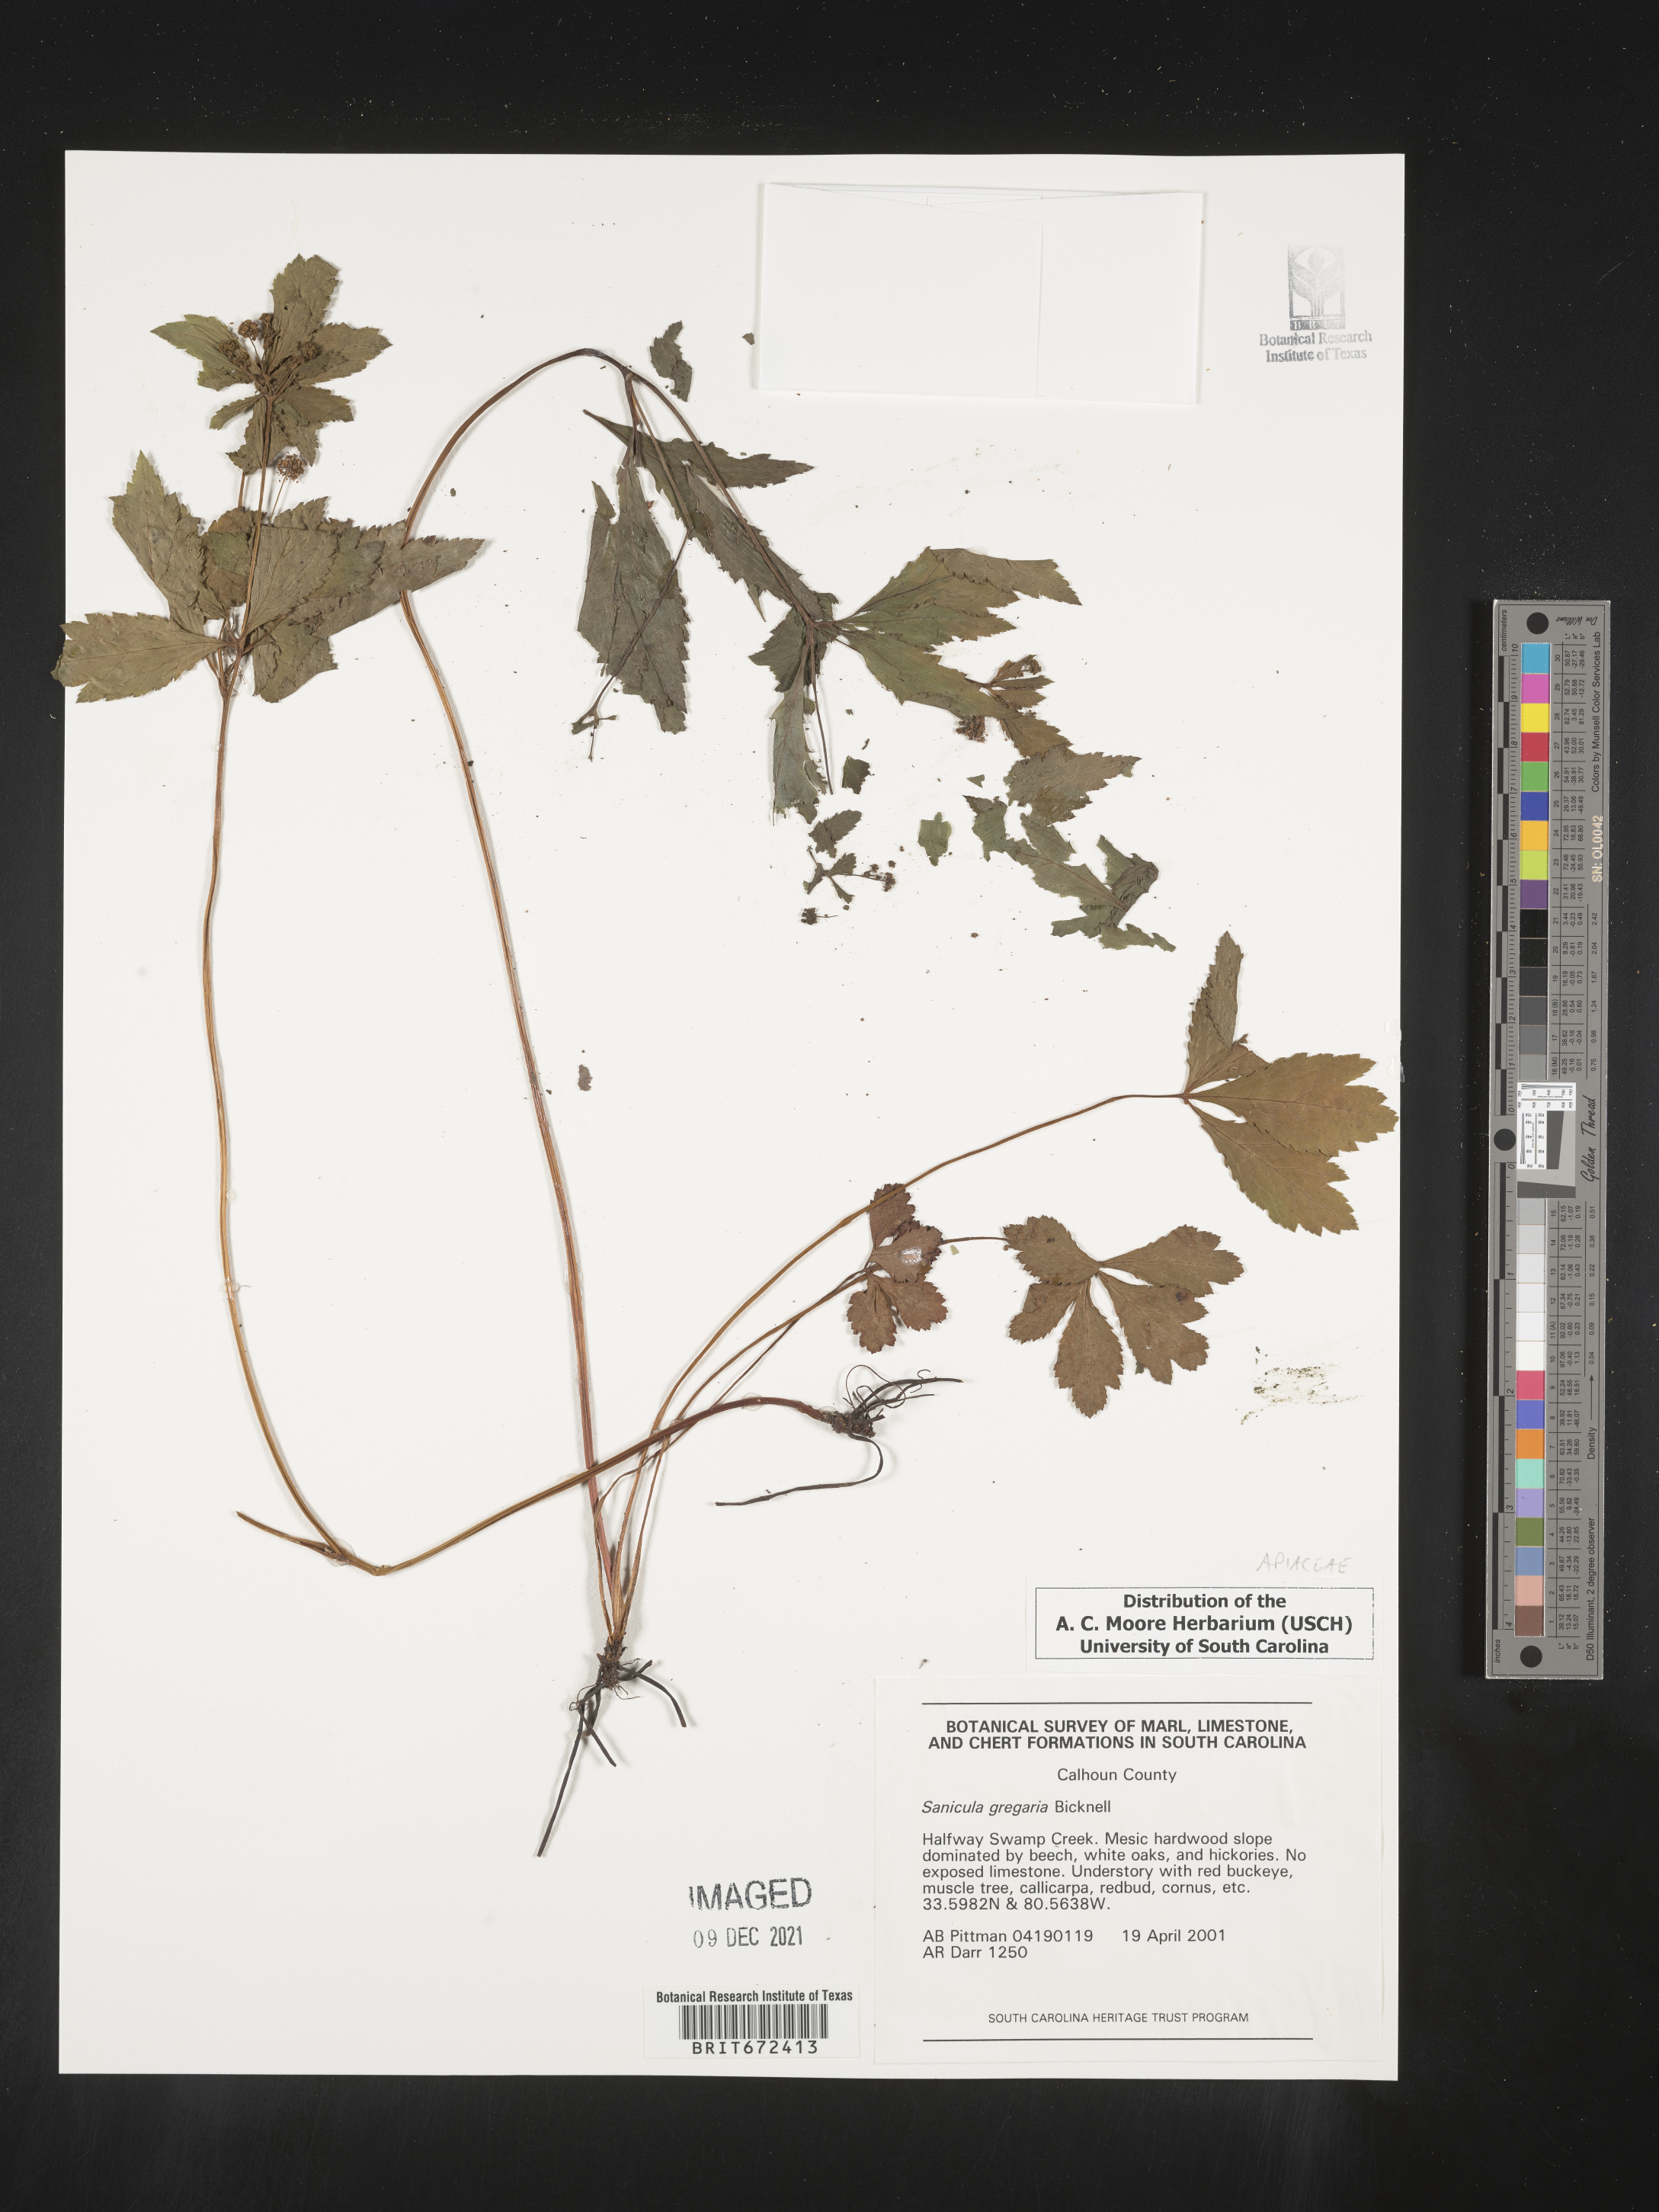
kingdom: Plantae
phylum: Tracheophyta
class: Magnoliopsida
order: Apiales
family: Apiaceae
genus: Sanicula
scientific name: Sanicula odorata
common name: Cluster sanicle
